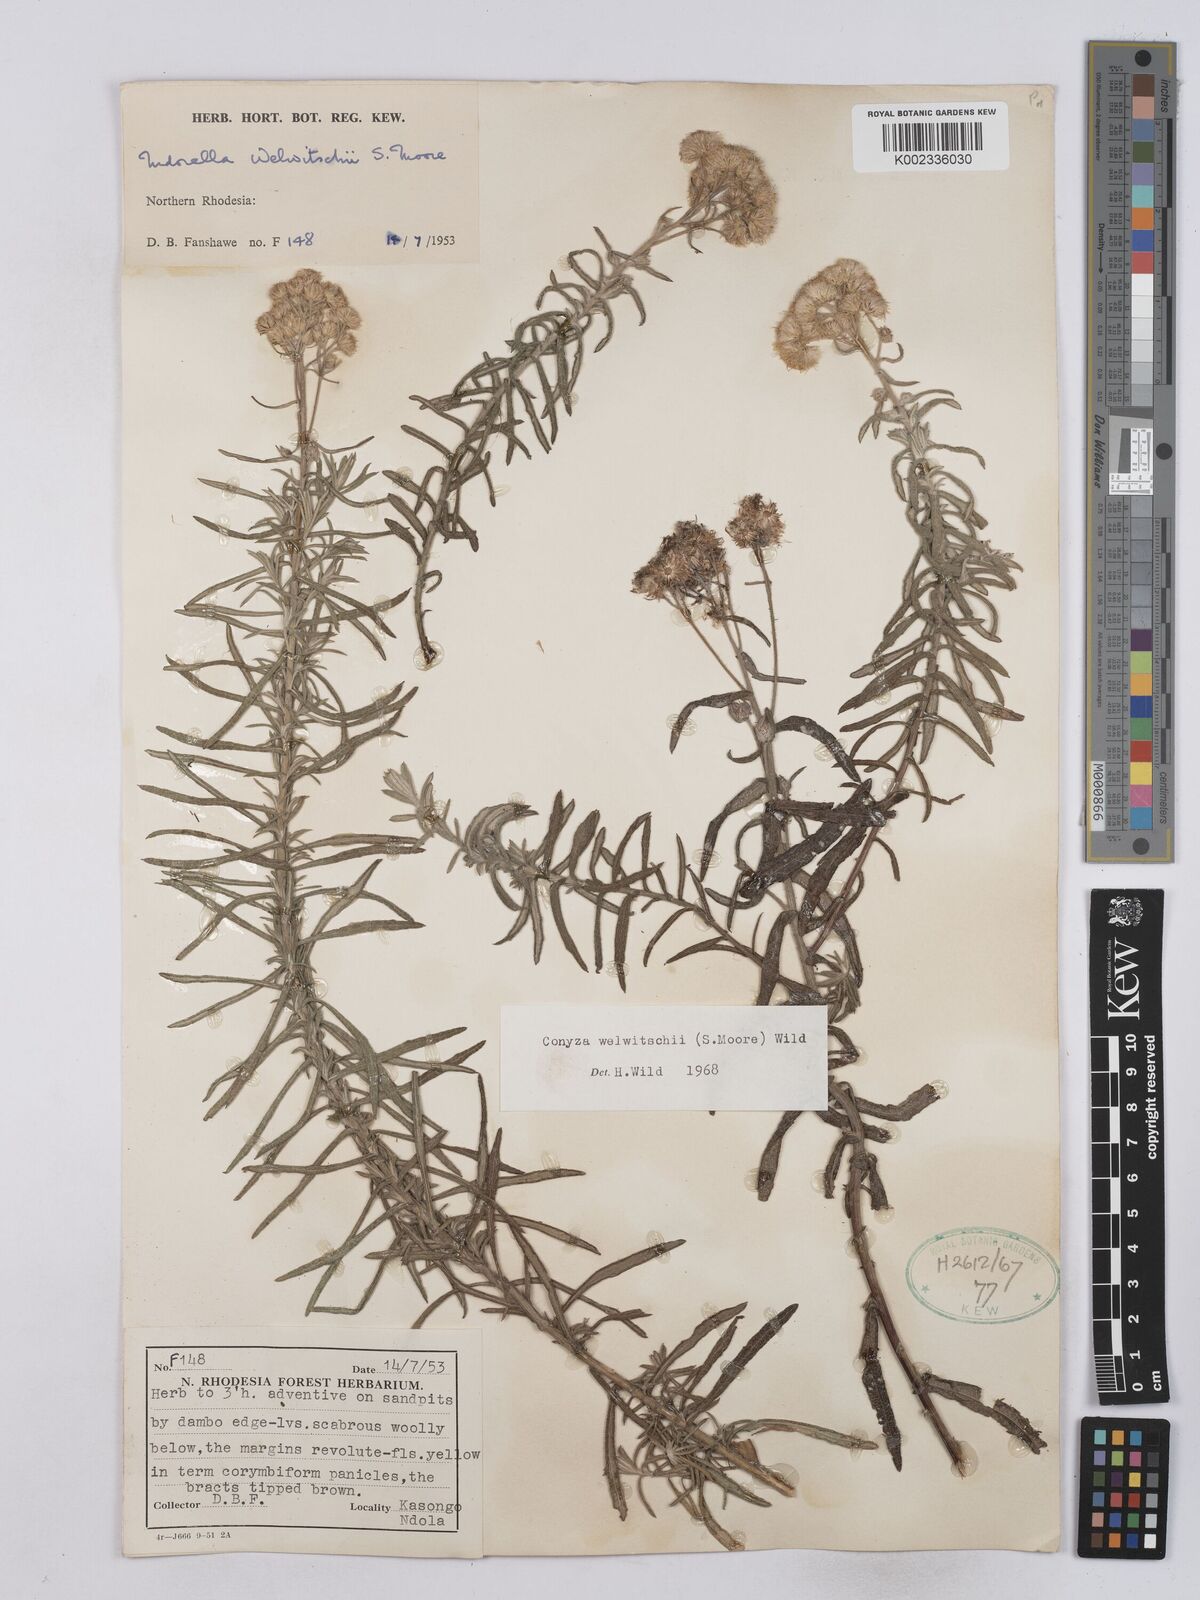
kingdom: Plantae
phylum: Tracheophyta
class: Magnoliopsida
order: Asterales
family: Asteraceae
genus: Nidorella
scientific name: Nidorella welwitschii
